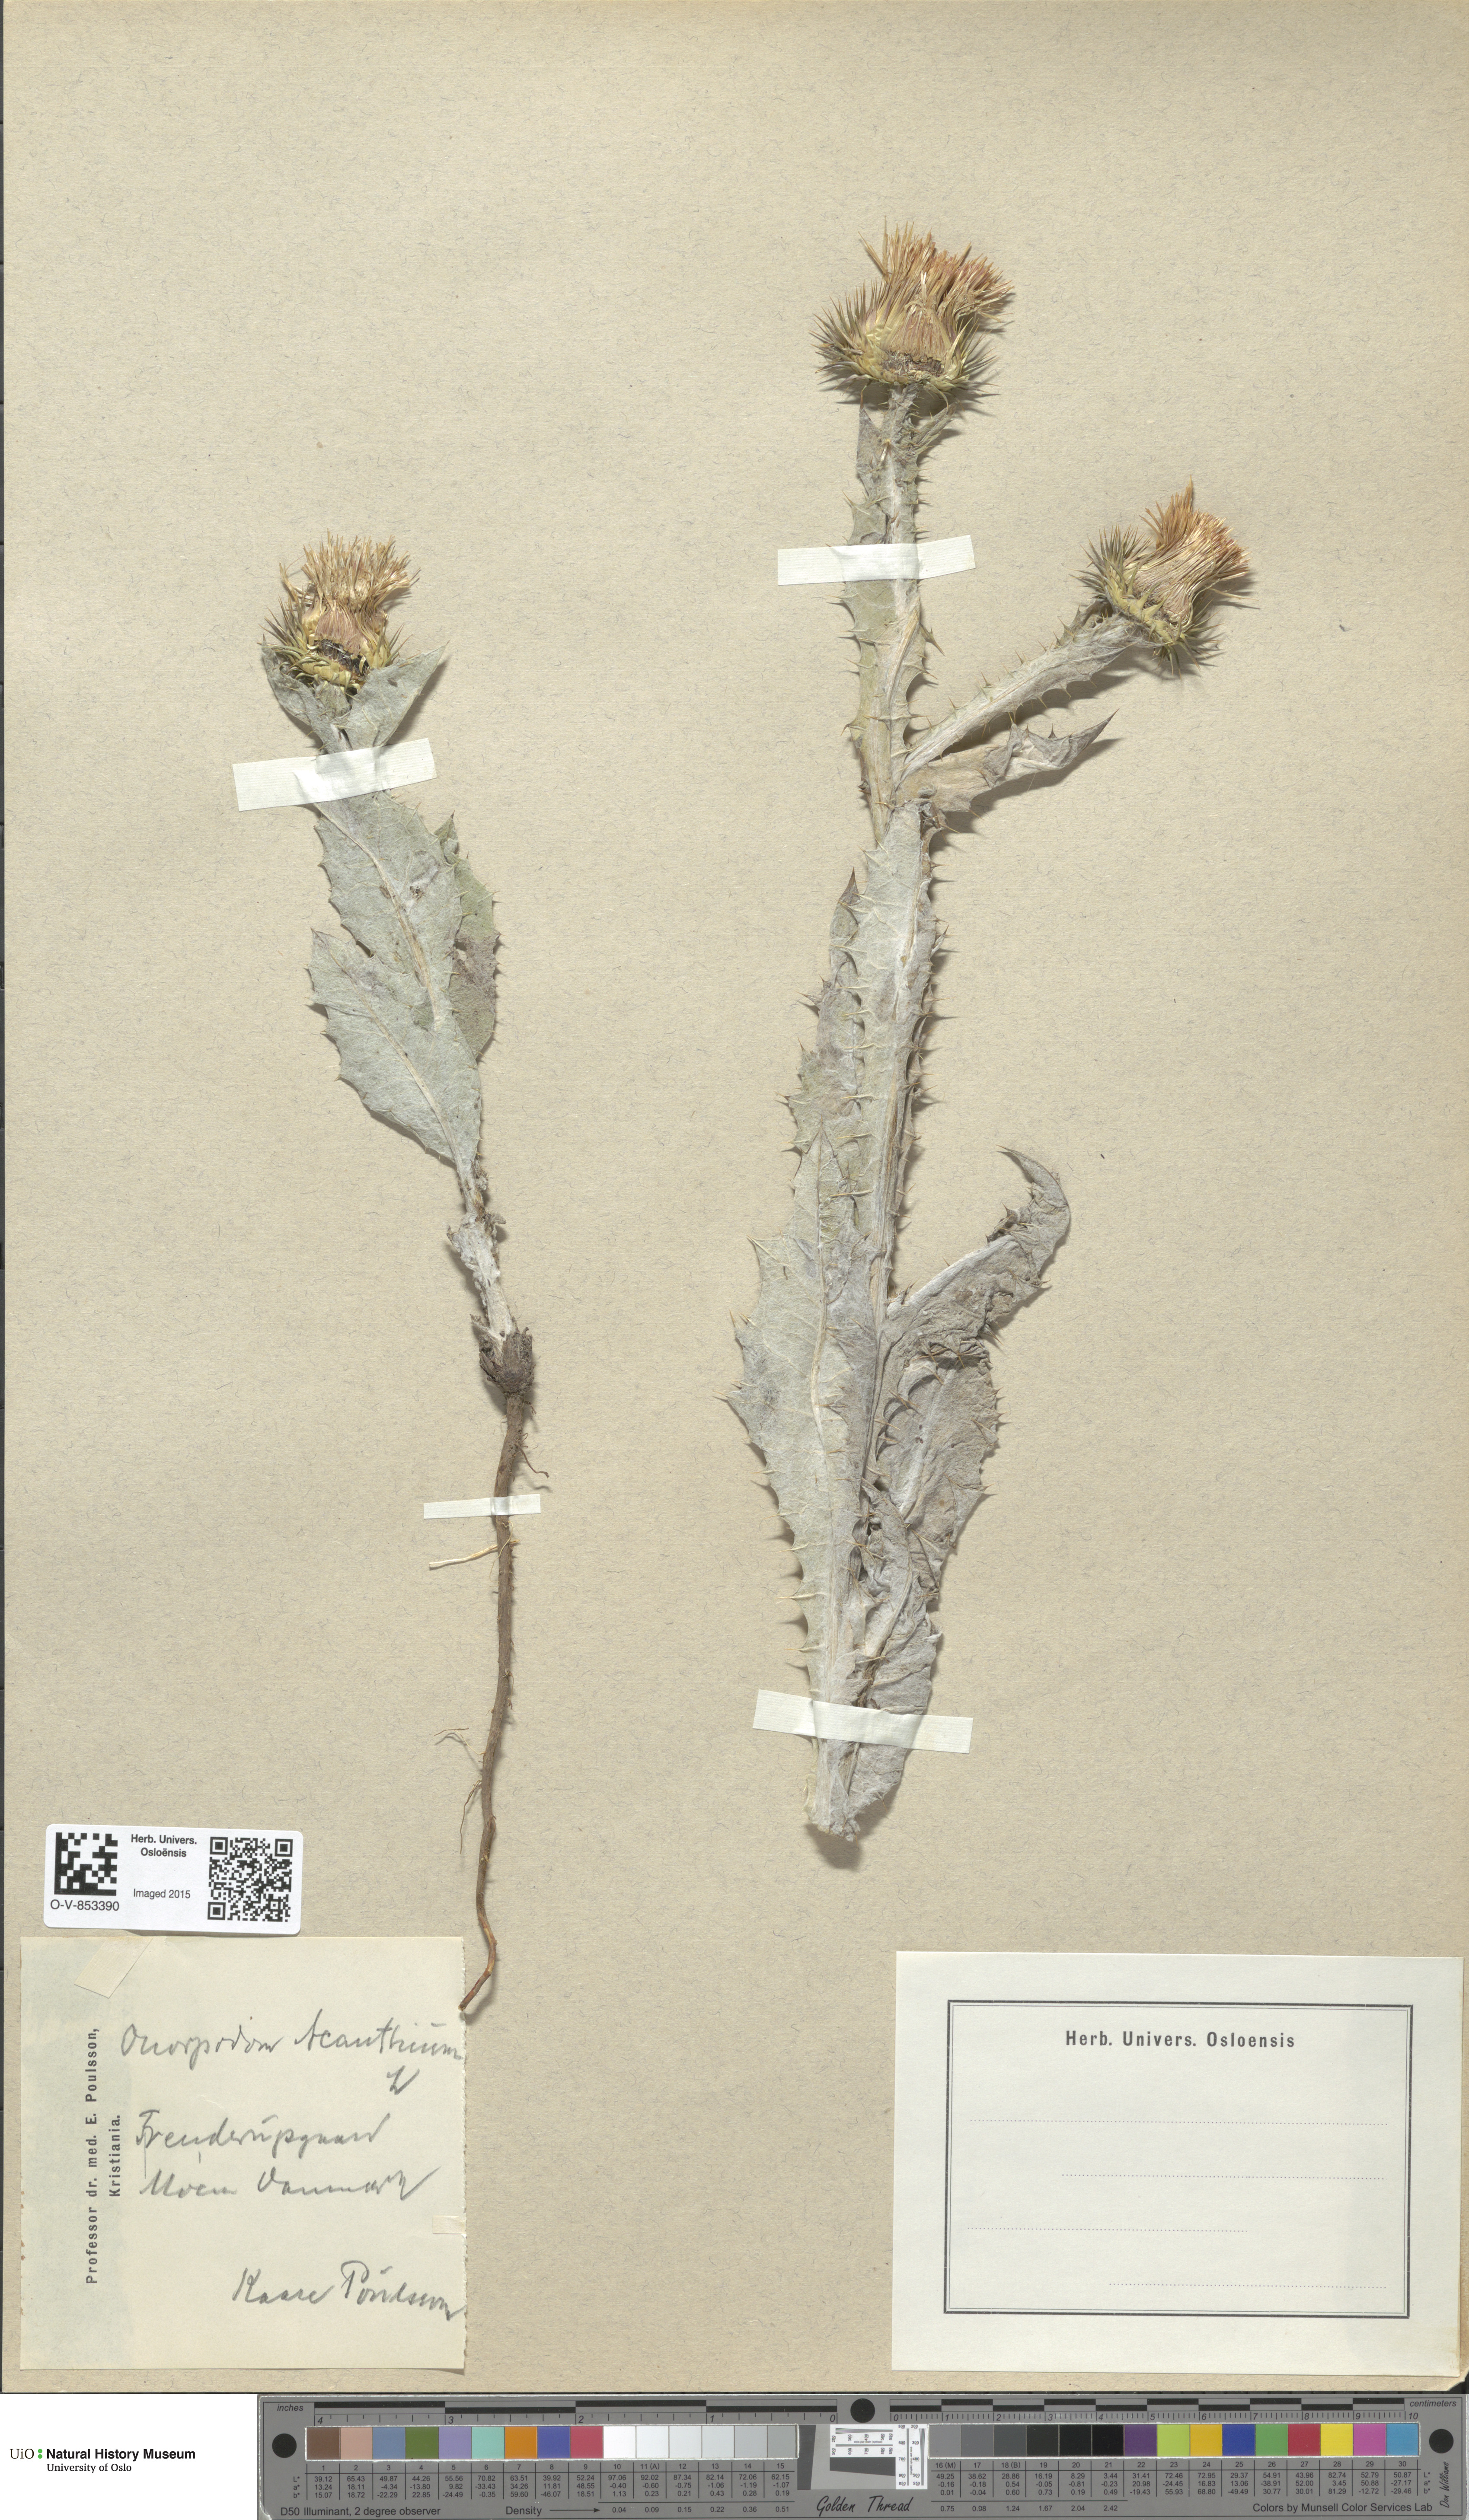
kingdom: Plantae
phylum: Tracheophyta
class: Magnoliopsida
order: Asterales
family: Asteraceae
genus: Onopordum
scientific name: Onopordum acanthium
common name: Scotch thistle
